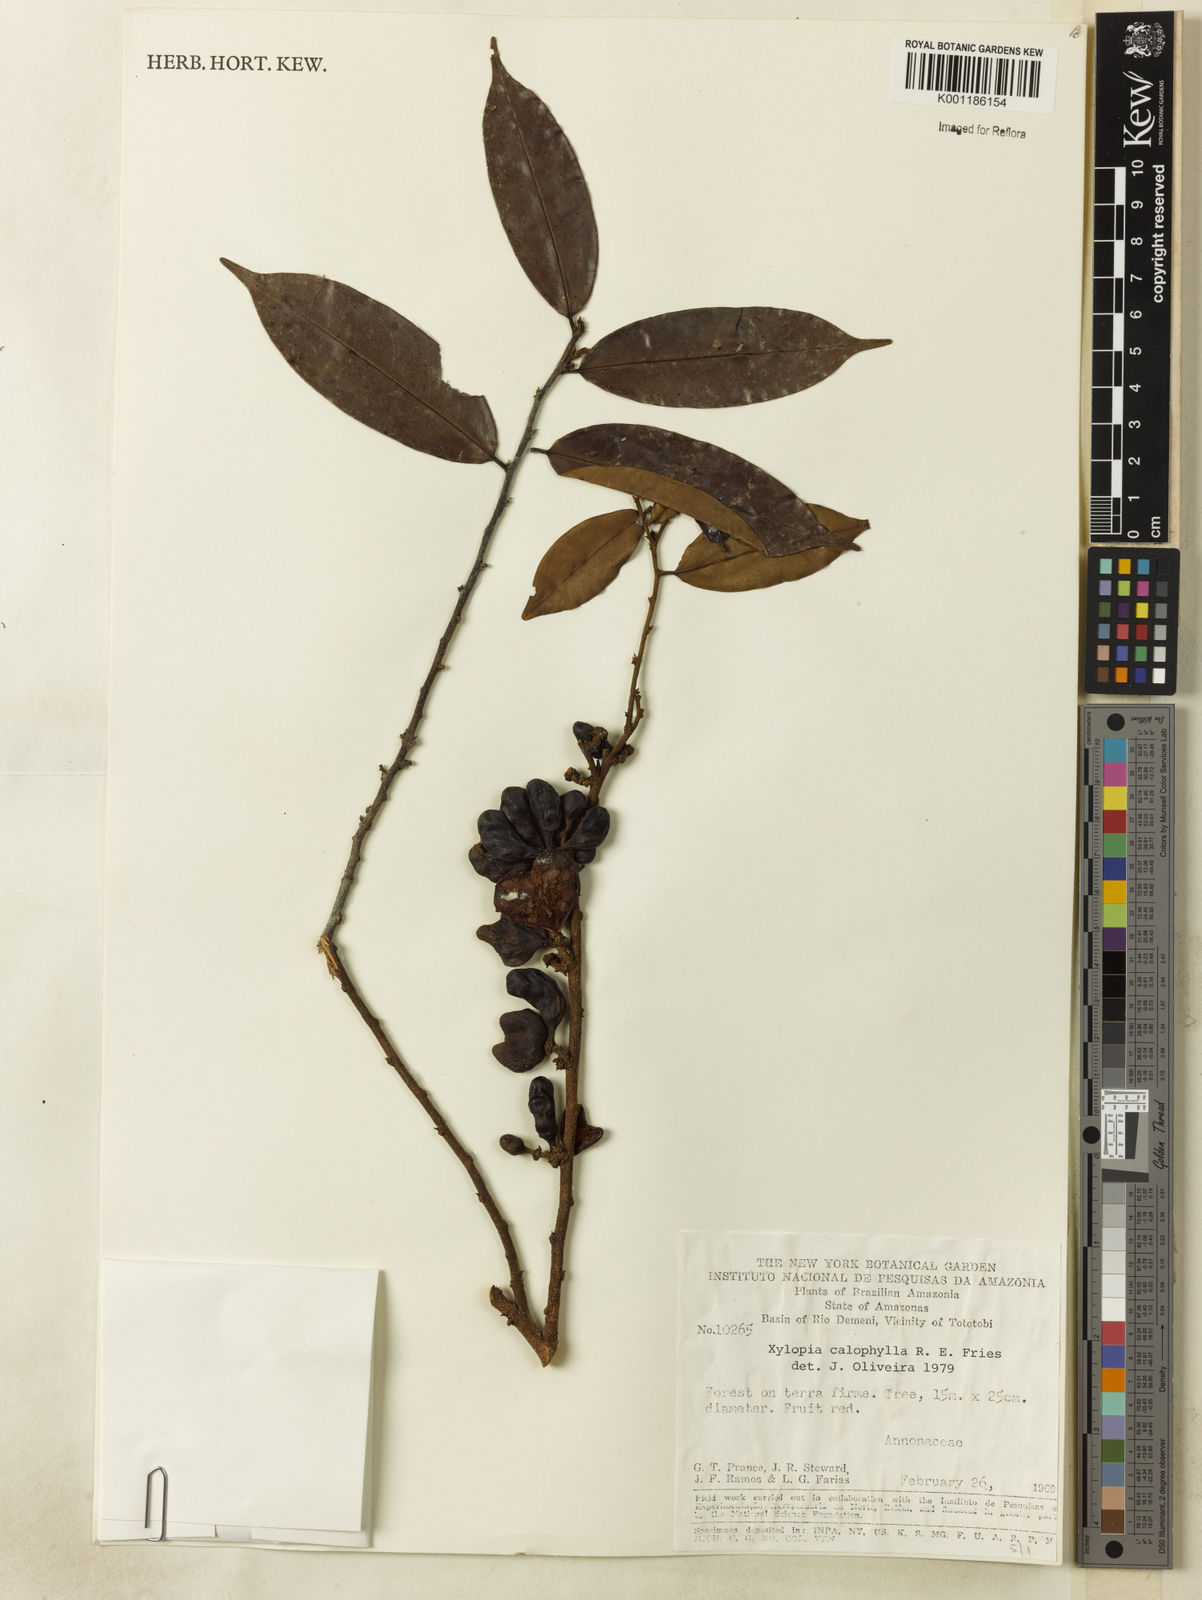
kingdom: Plantae
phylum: Tracheophyta
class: Magnoliopsida
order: Magnoliales
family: Annonaceae
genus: Xylopia
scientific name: Xylopia calophylla
